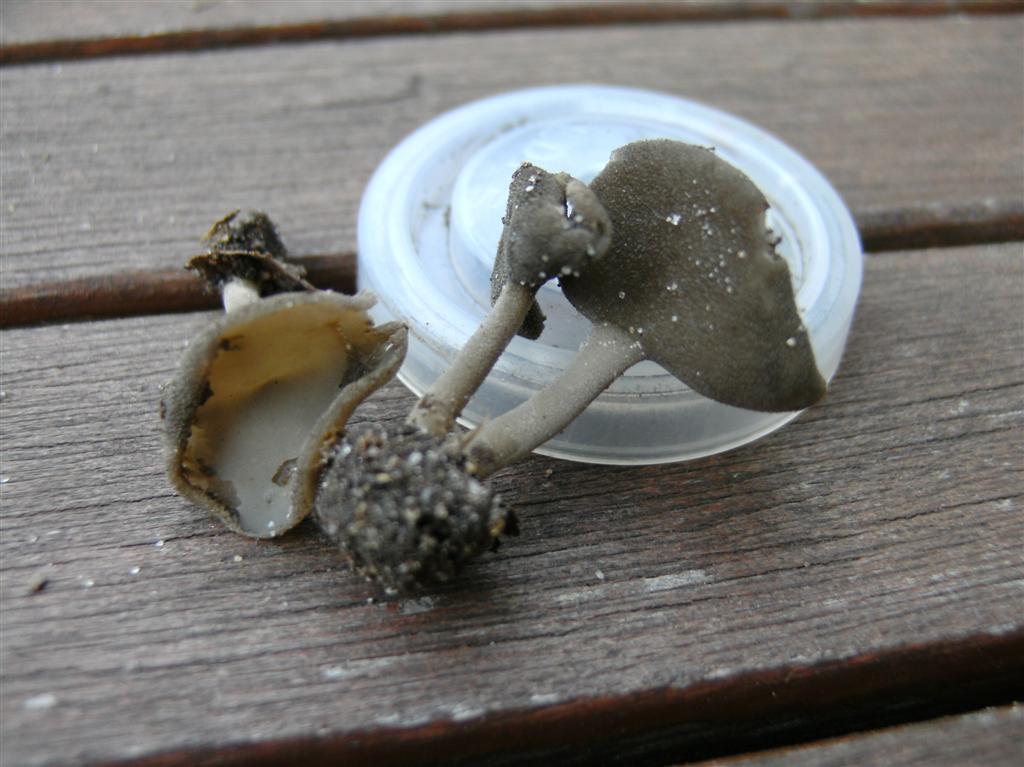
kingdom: Fungi
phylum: Ascomycota
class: Pezizomycetes
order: Pezizales
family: Helvellaceae
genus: Helvella
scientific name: Helvella fibrosa
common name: dunstokket foldhat
